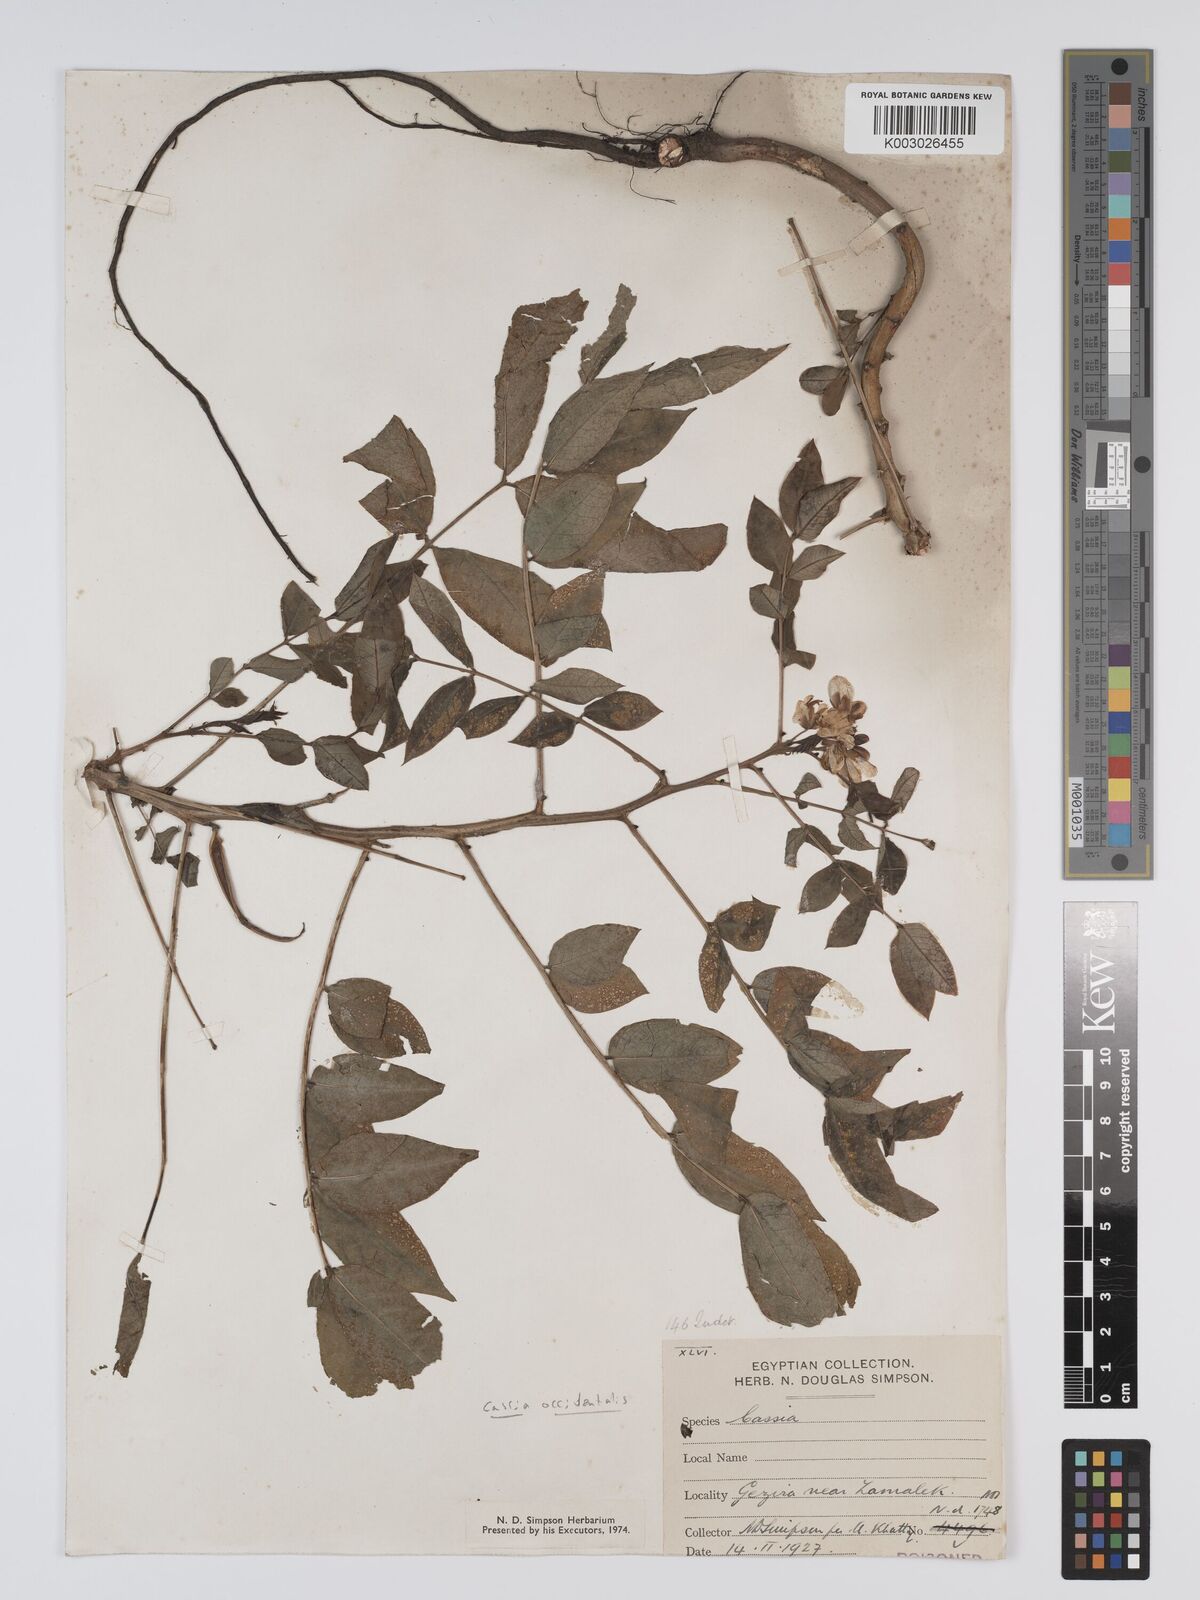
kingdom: Plantae
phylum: Tracheophyta
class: Magnoliopsida
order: Fabales
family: Fabaceae
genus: Cassia
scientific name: Cassia
